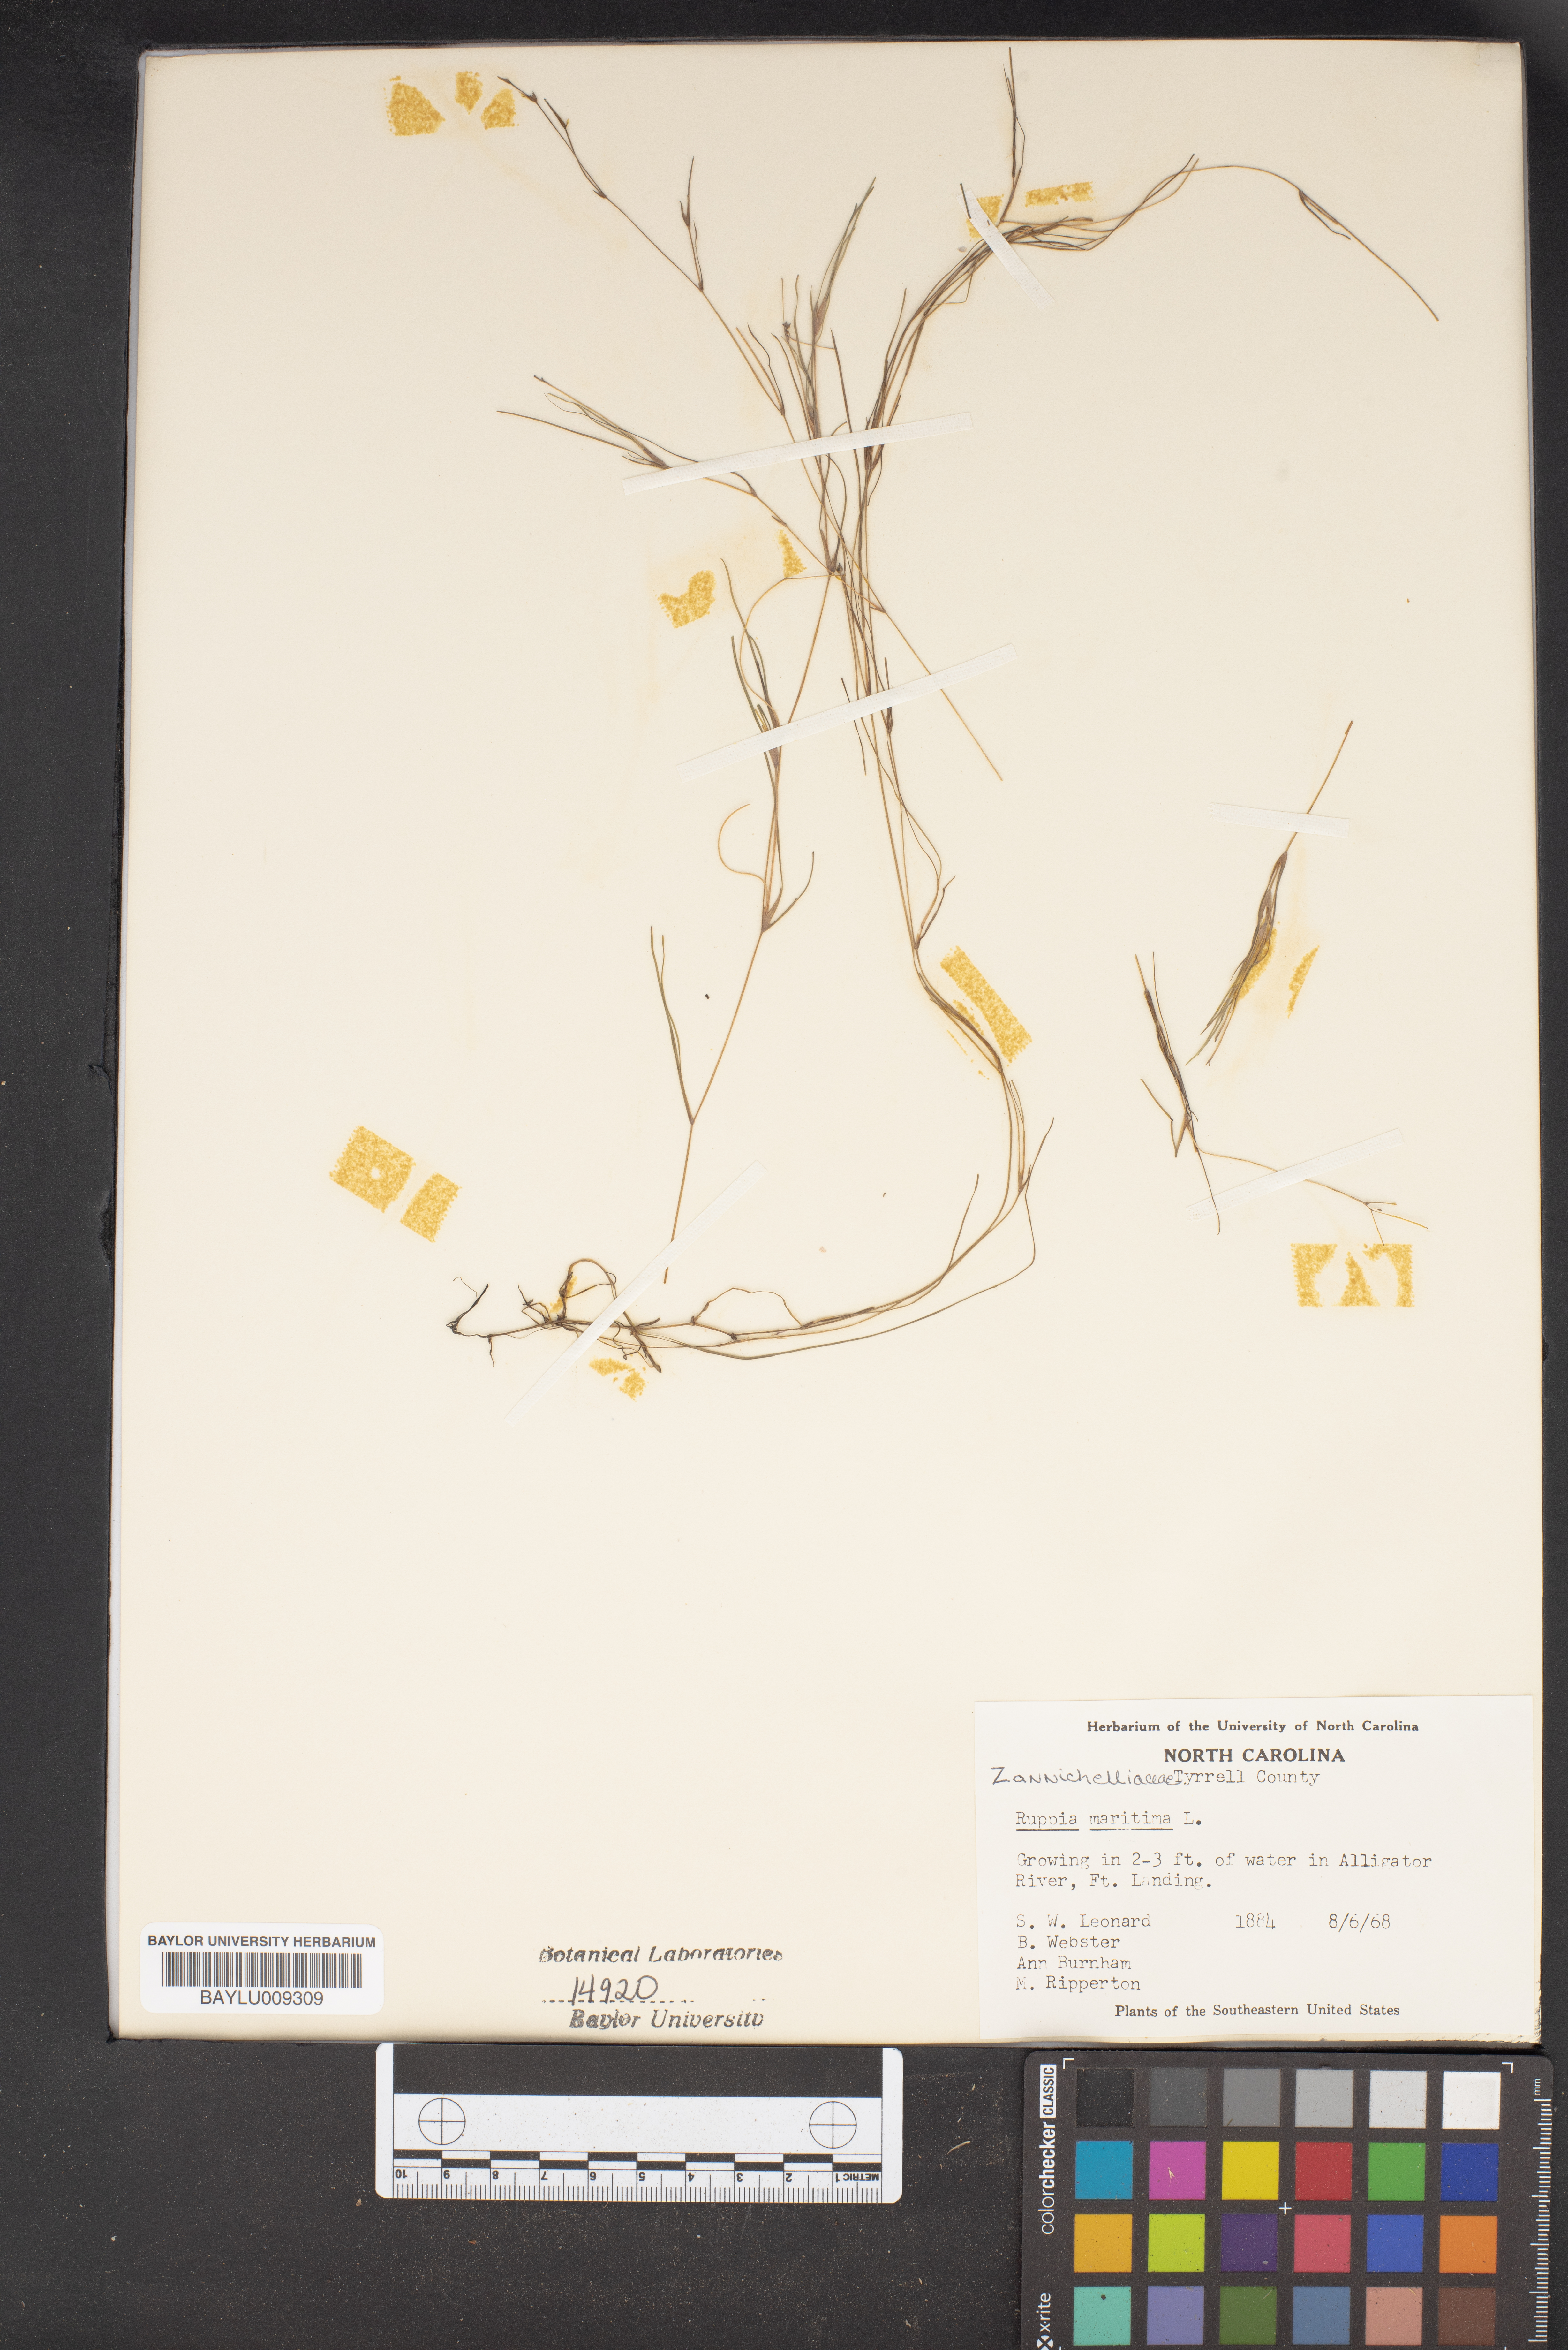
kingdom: Plantae
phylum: Tracheophyta
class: Liliopsida
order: Alismatales
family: Ruppiaceae
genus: Ruppia
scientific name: Ruppia maritima
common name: Beaked tasselweed
